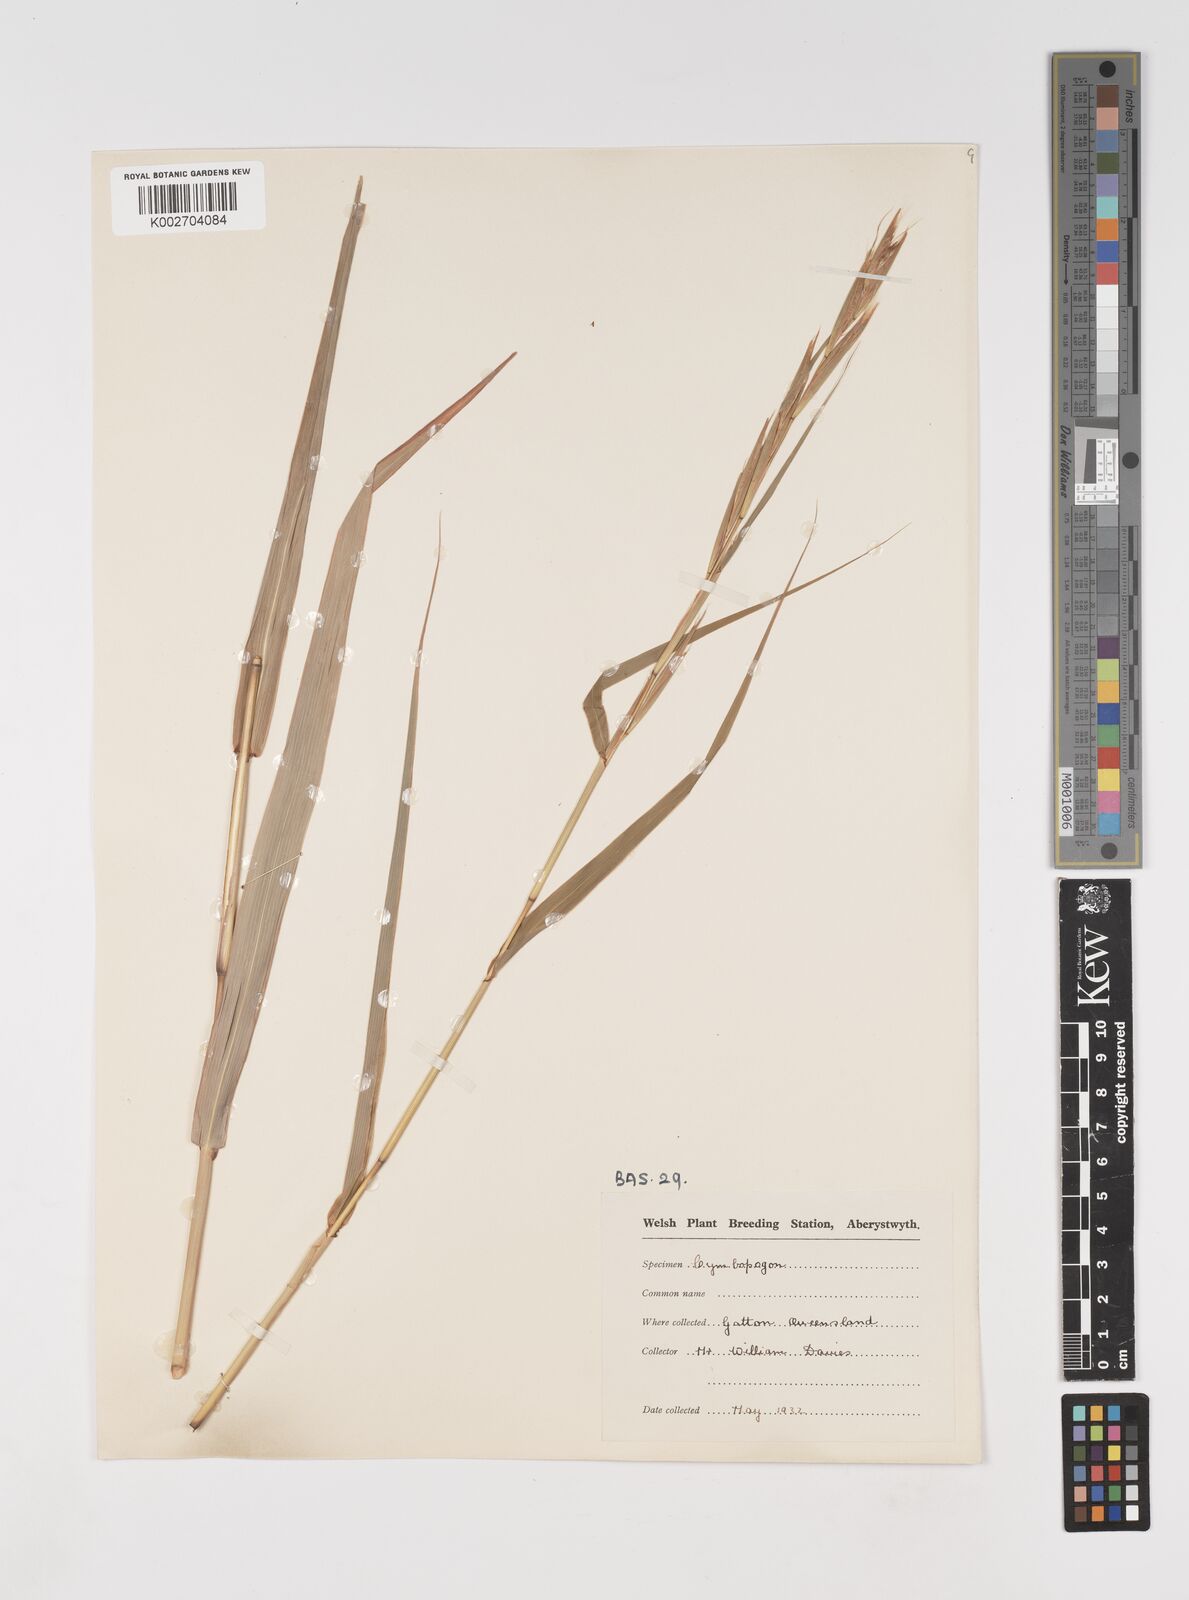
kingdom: Plantae
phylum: Tracheophyta
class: Liliopsida
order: Poales
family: Poaceae
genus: Cymbopogon
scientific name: Cymbopogon martini
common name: Ginger grass
